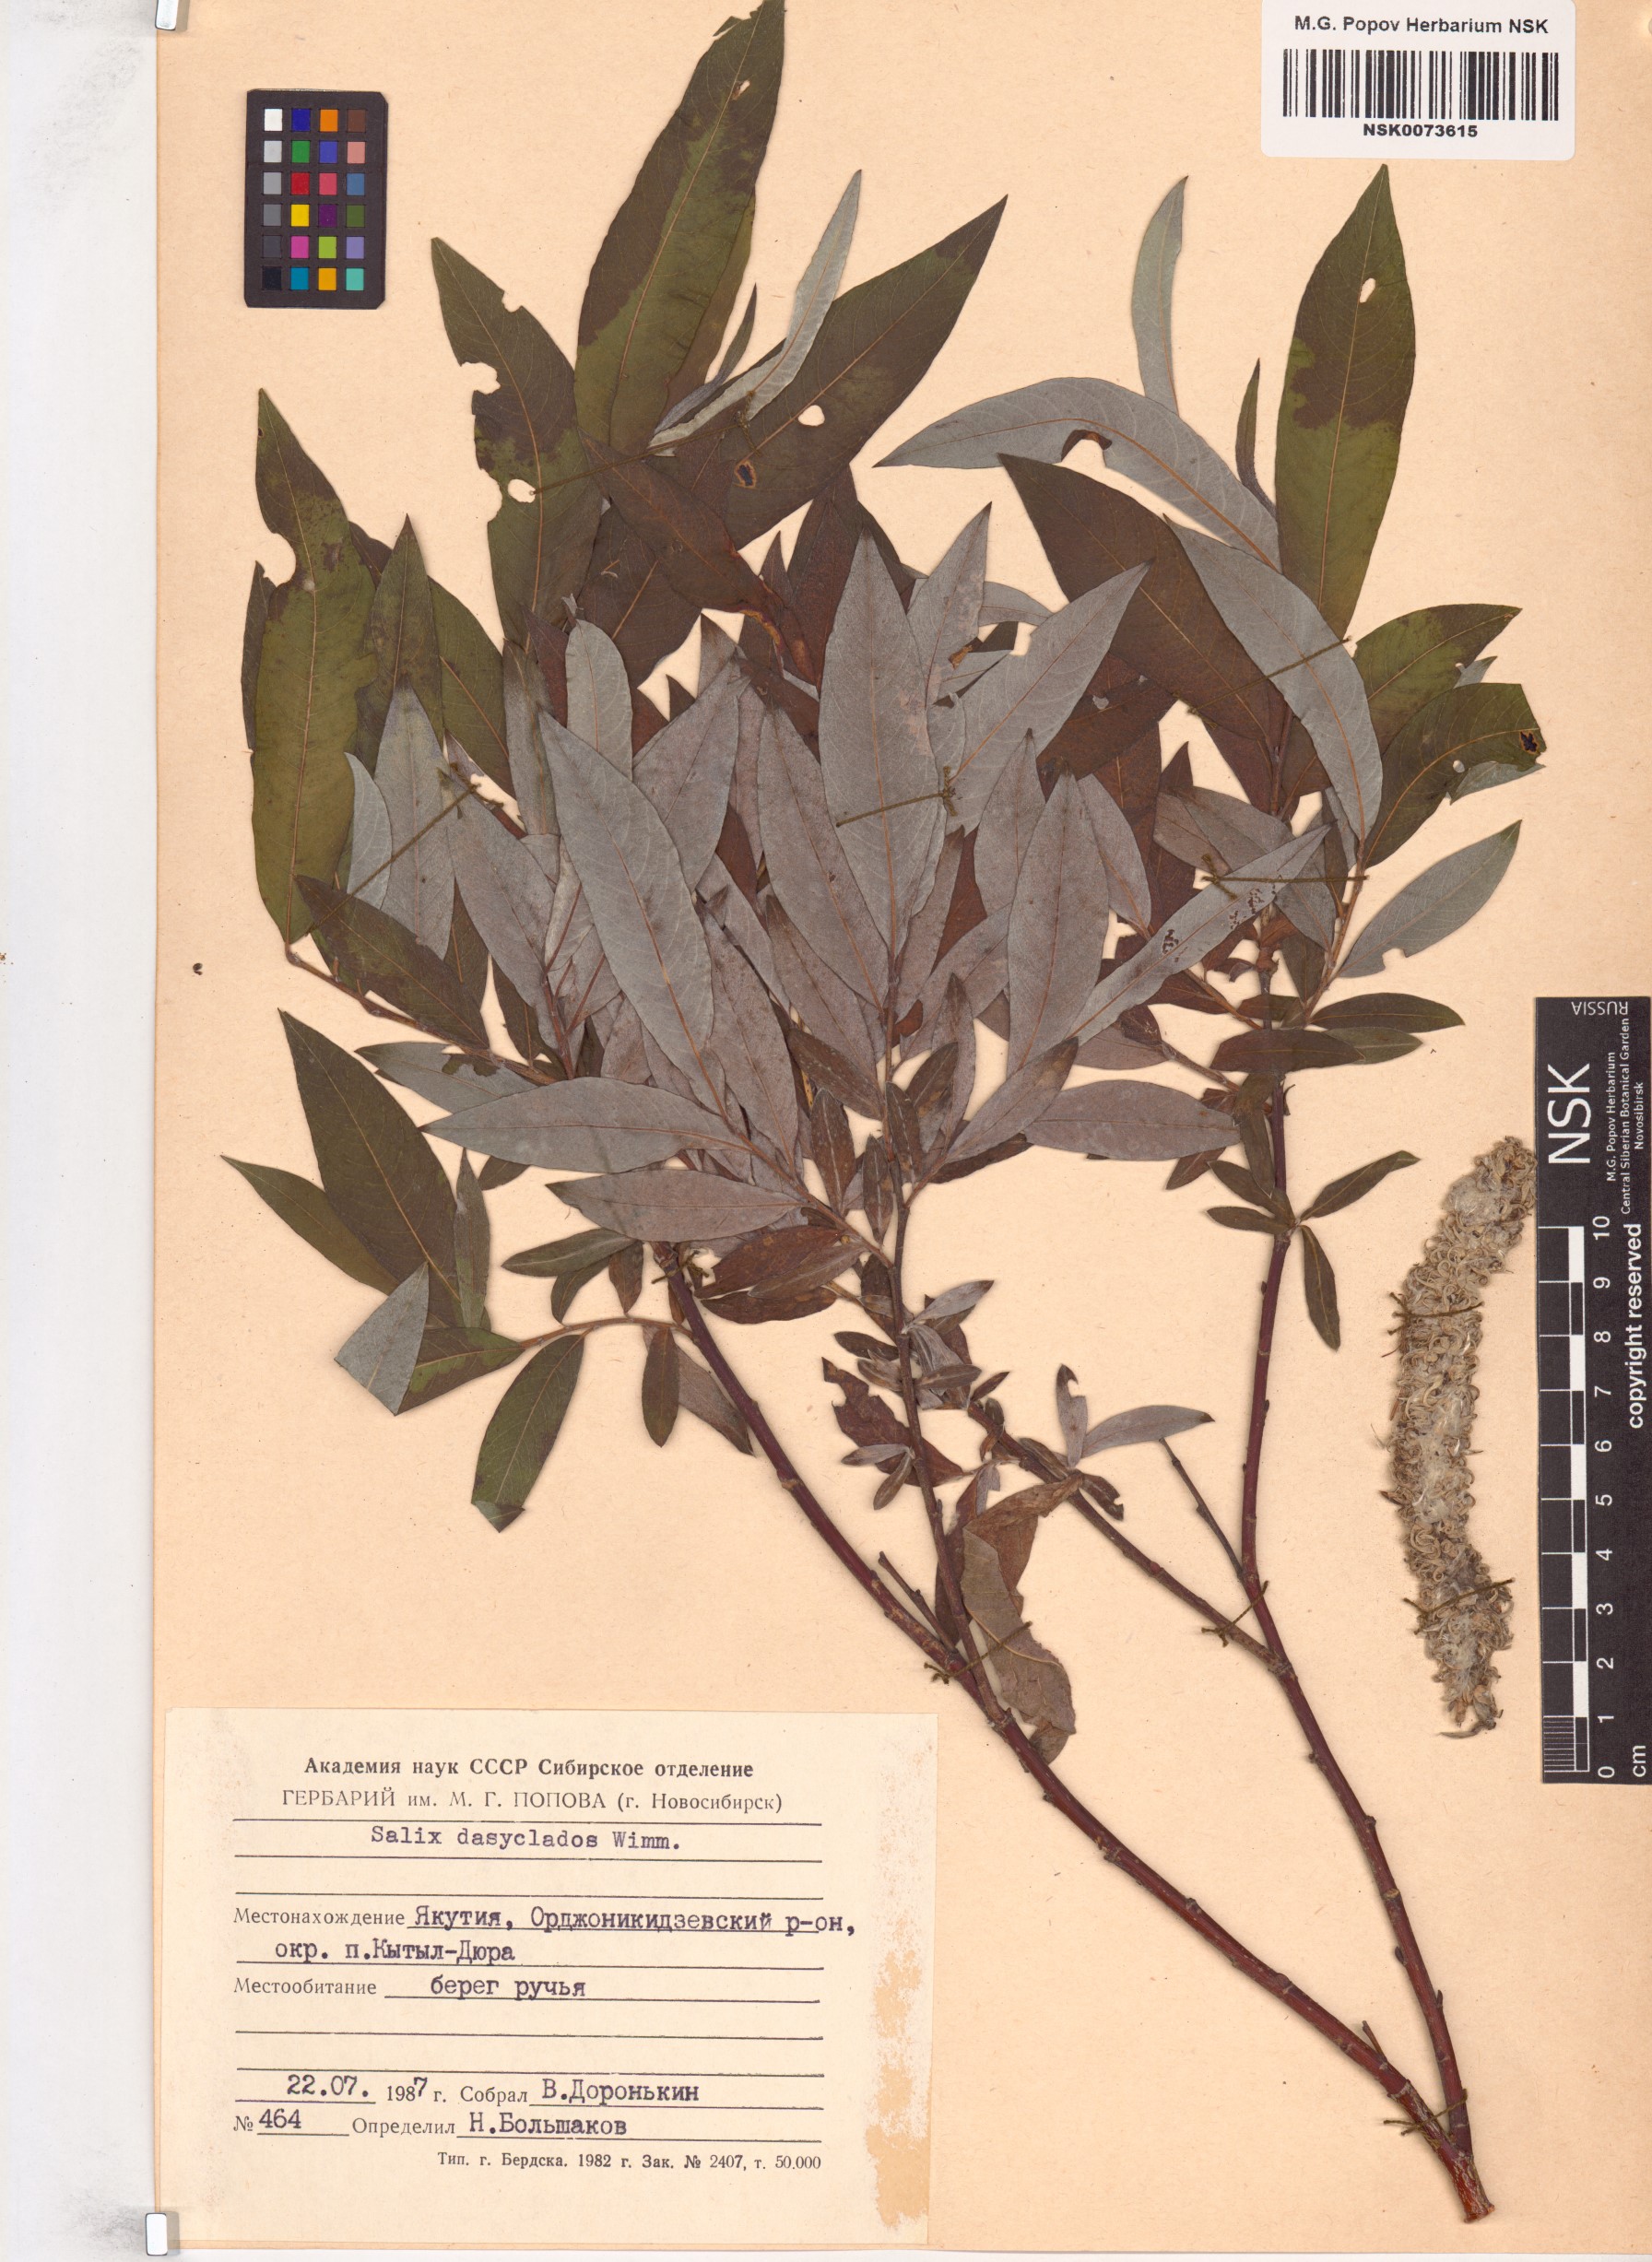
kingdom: Plantae
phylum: Tracheophyta
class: Magnoliopsida
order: Malpighiales
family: Salicaceae
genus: Salix
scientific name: Salix gmelinii
